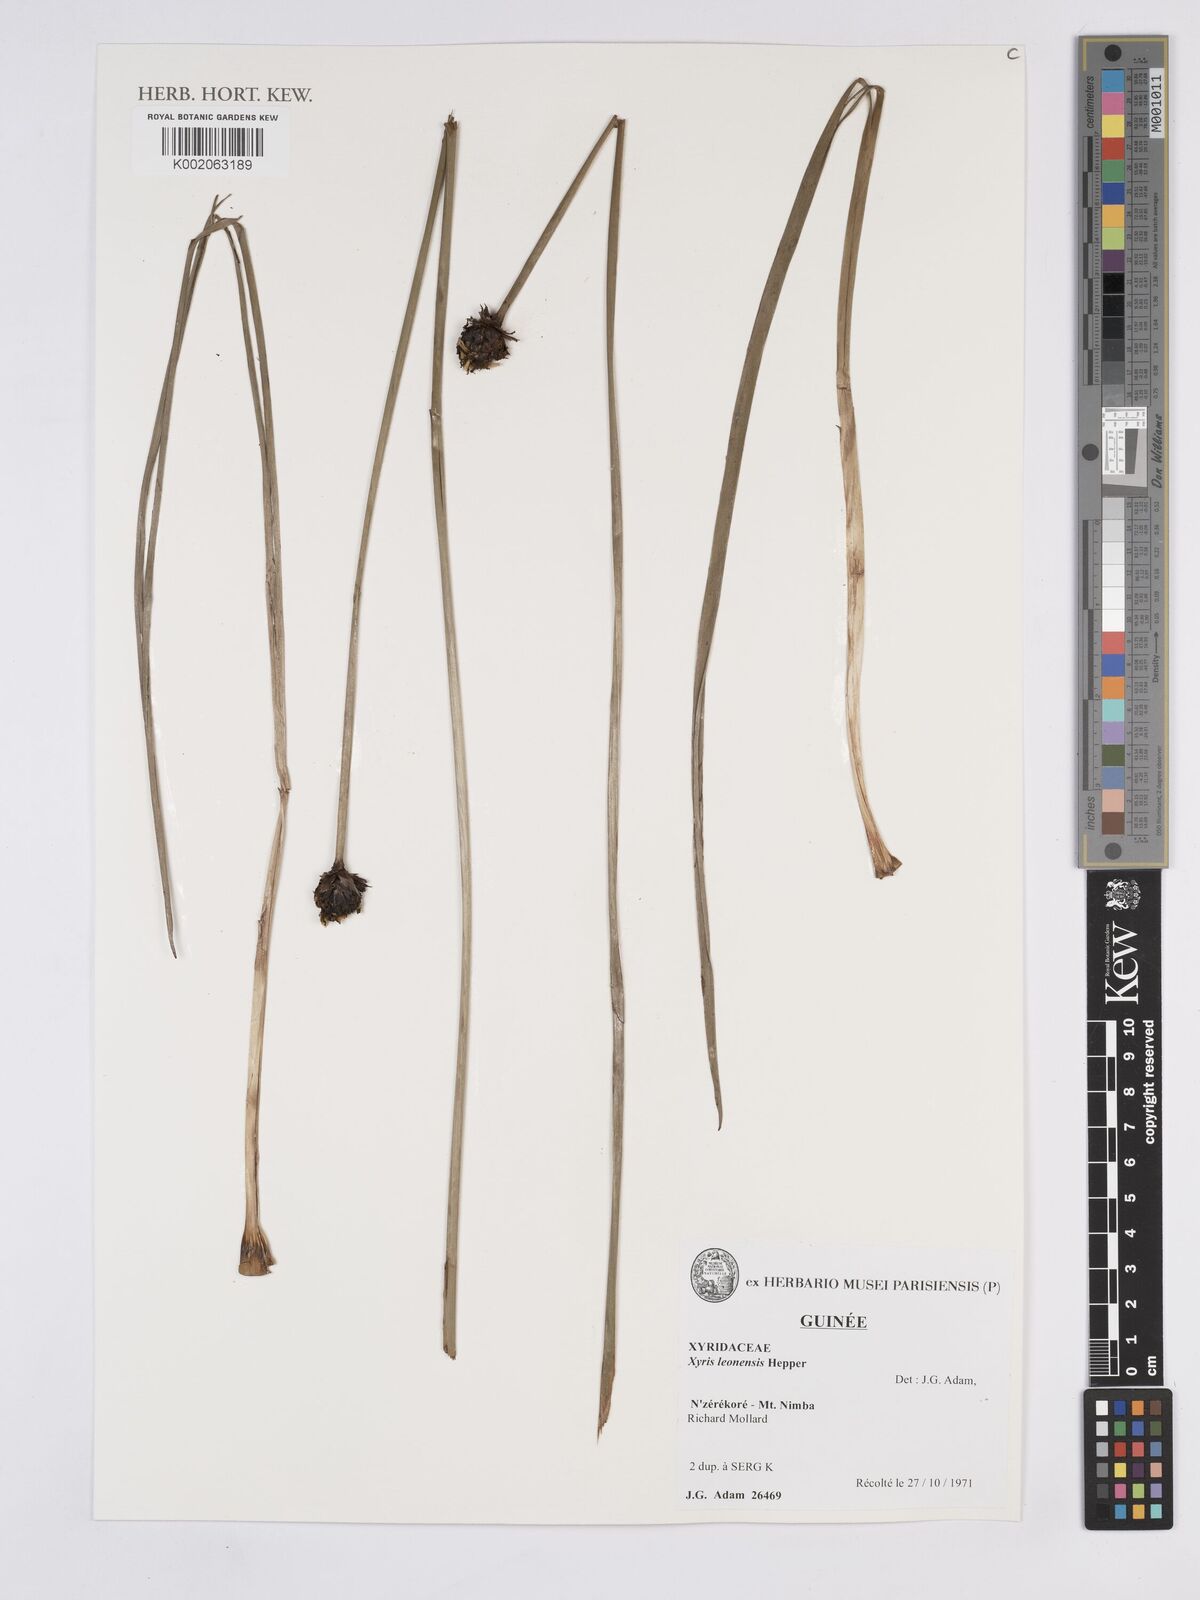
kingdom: Plantae
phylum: Tracheophyta
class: Liliopsida
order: Poales
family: Xyridaceae
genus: Xyris
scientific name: Xyris leonensis
